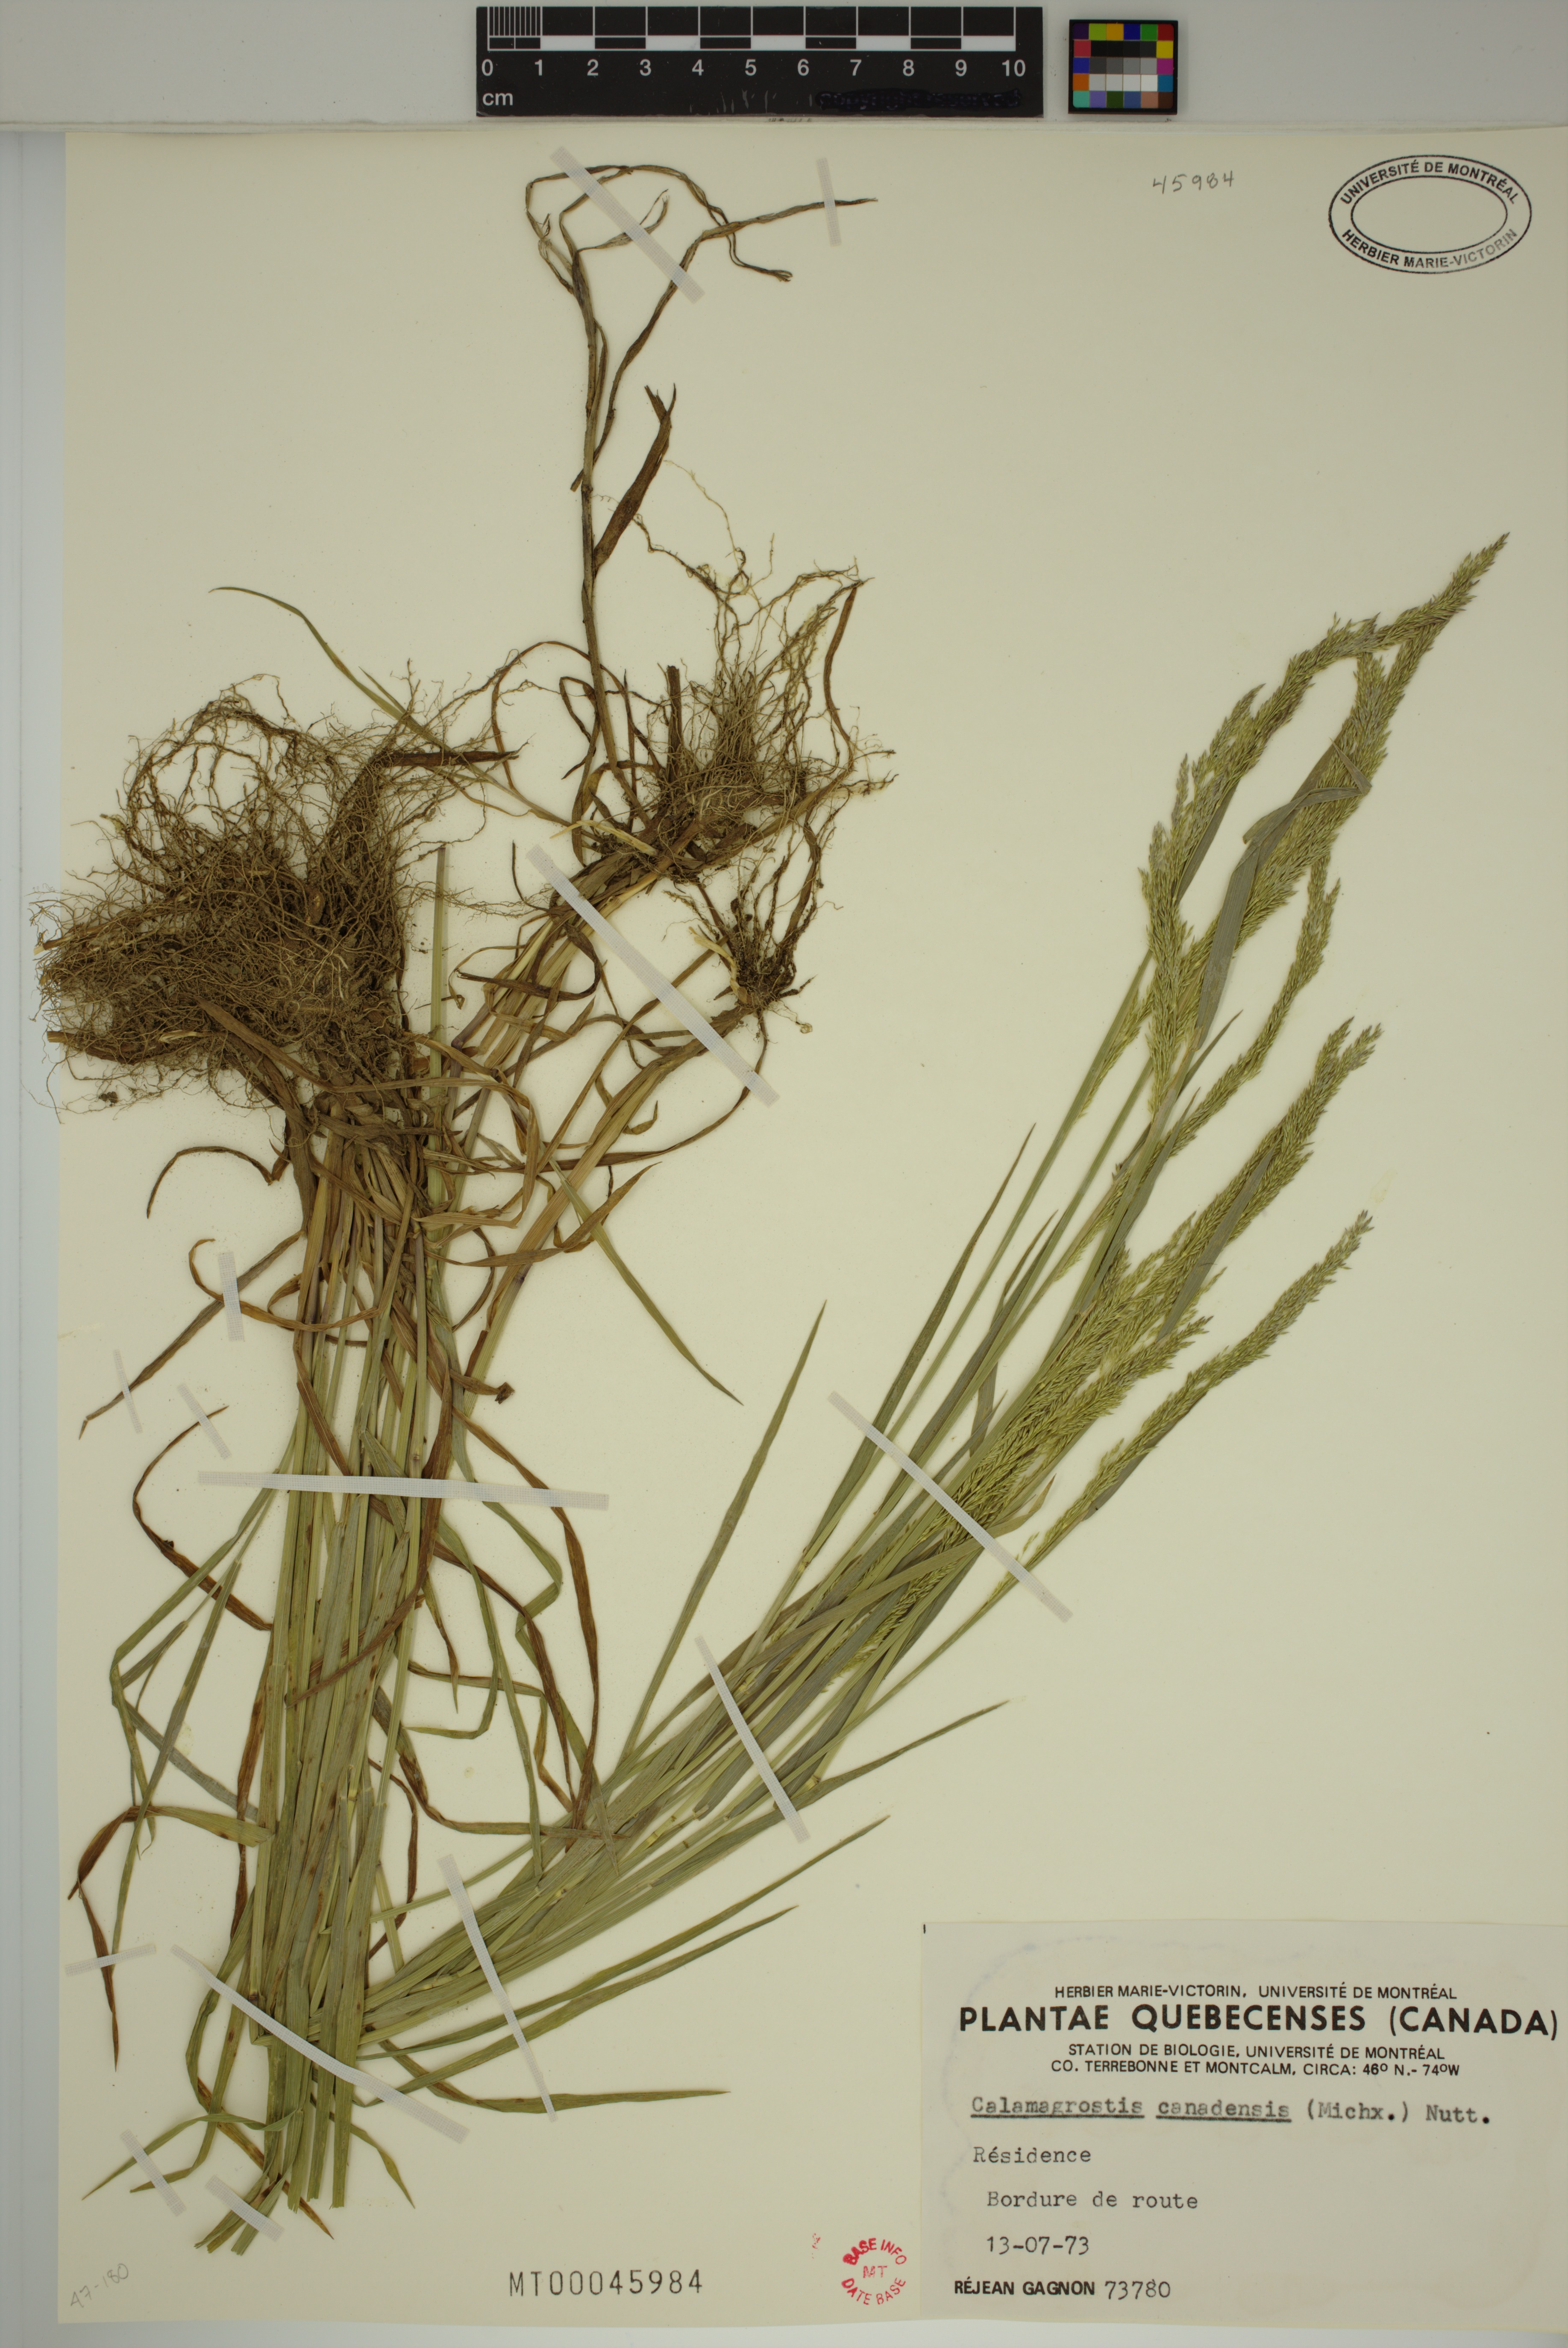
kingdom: Plantae
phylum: Tracheophyta
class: Liliopsida
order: Poales
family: Poaceae
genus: Calamagrostis
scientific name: Calamagrostis canadensis
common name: Canada bluejoint
